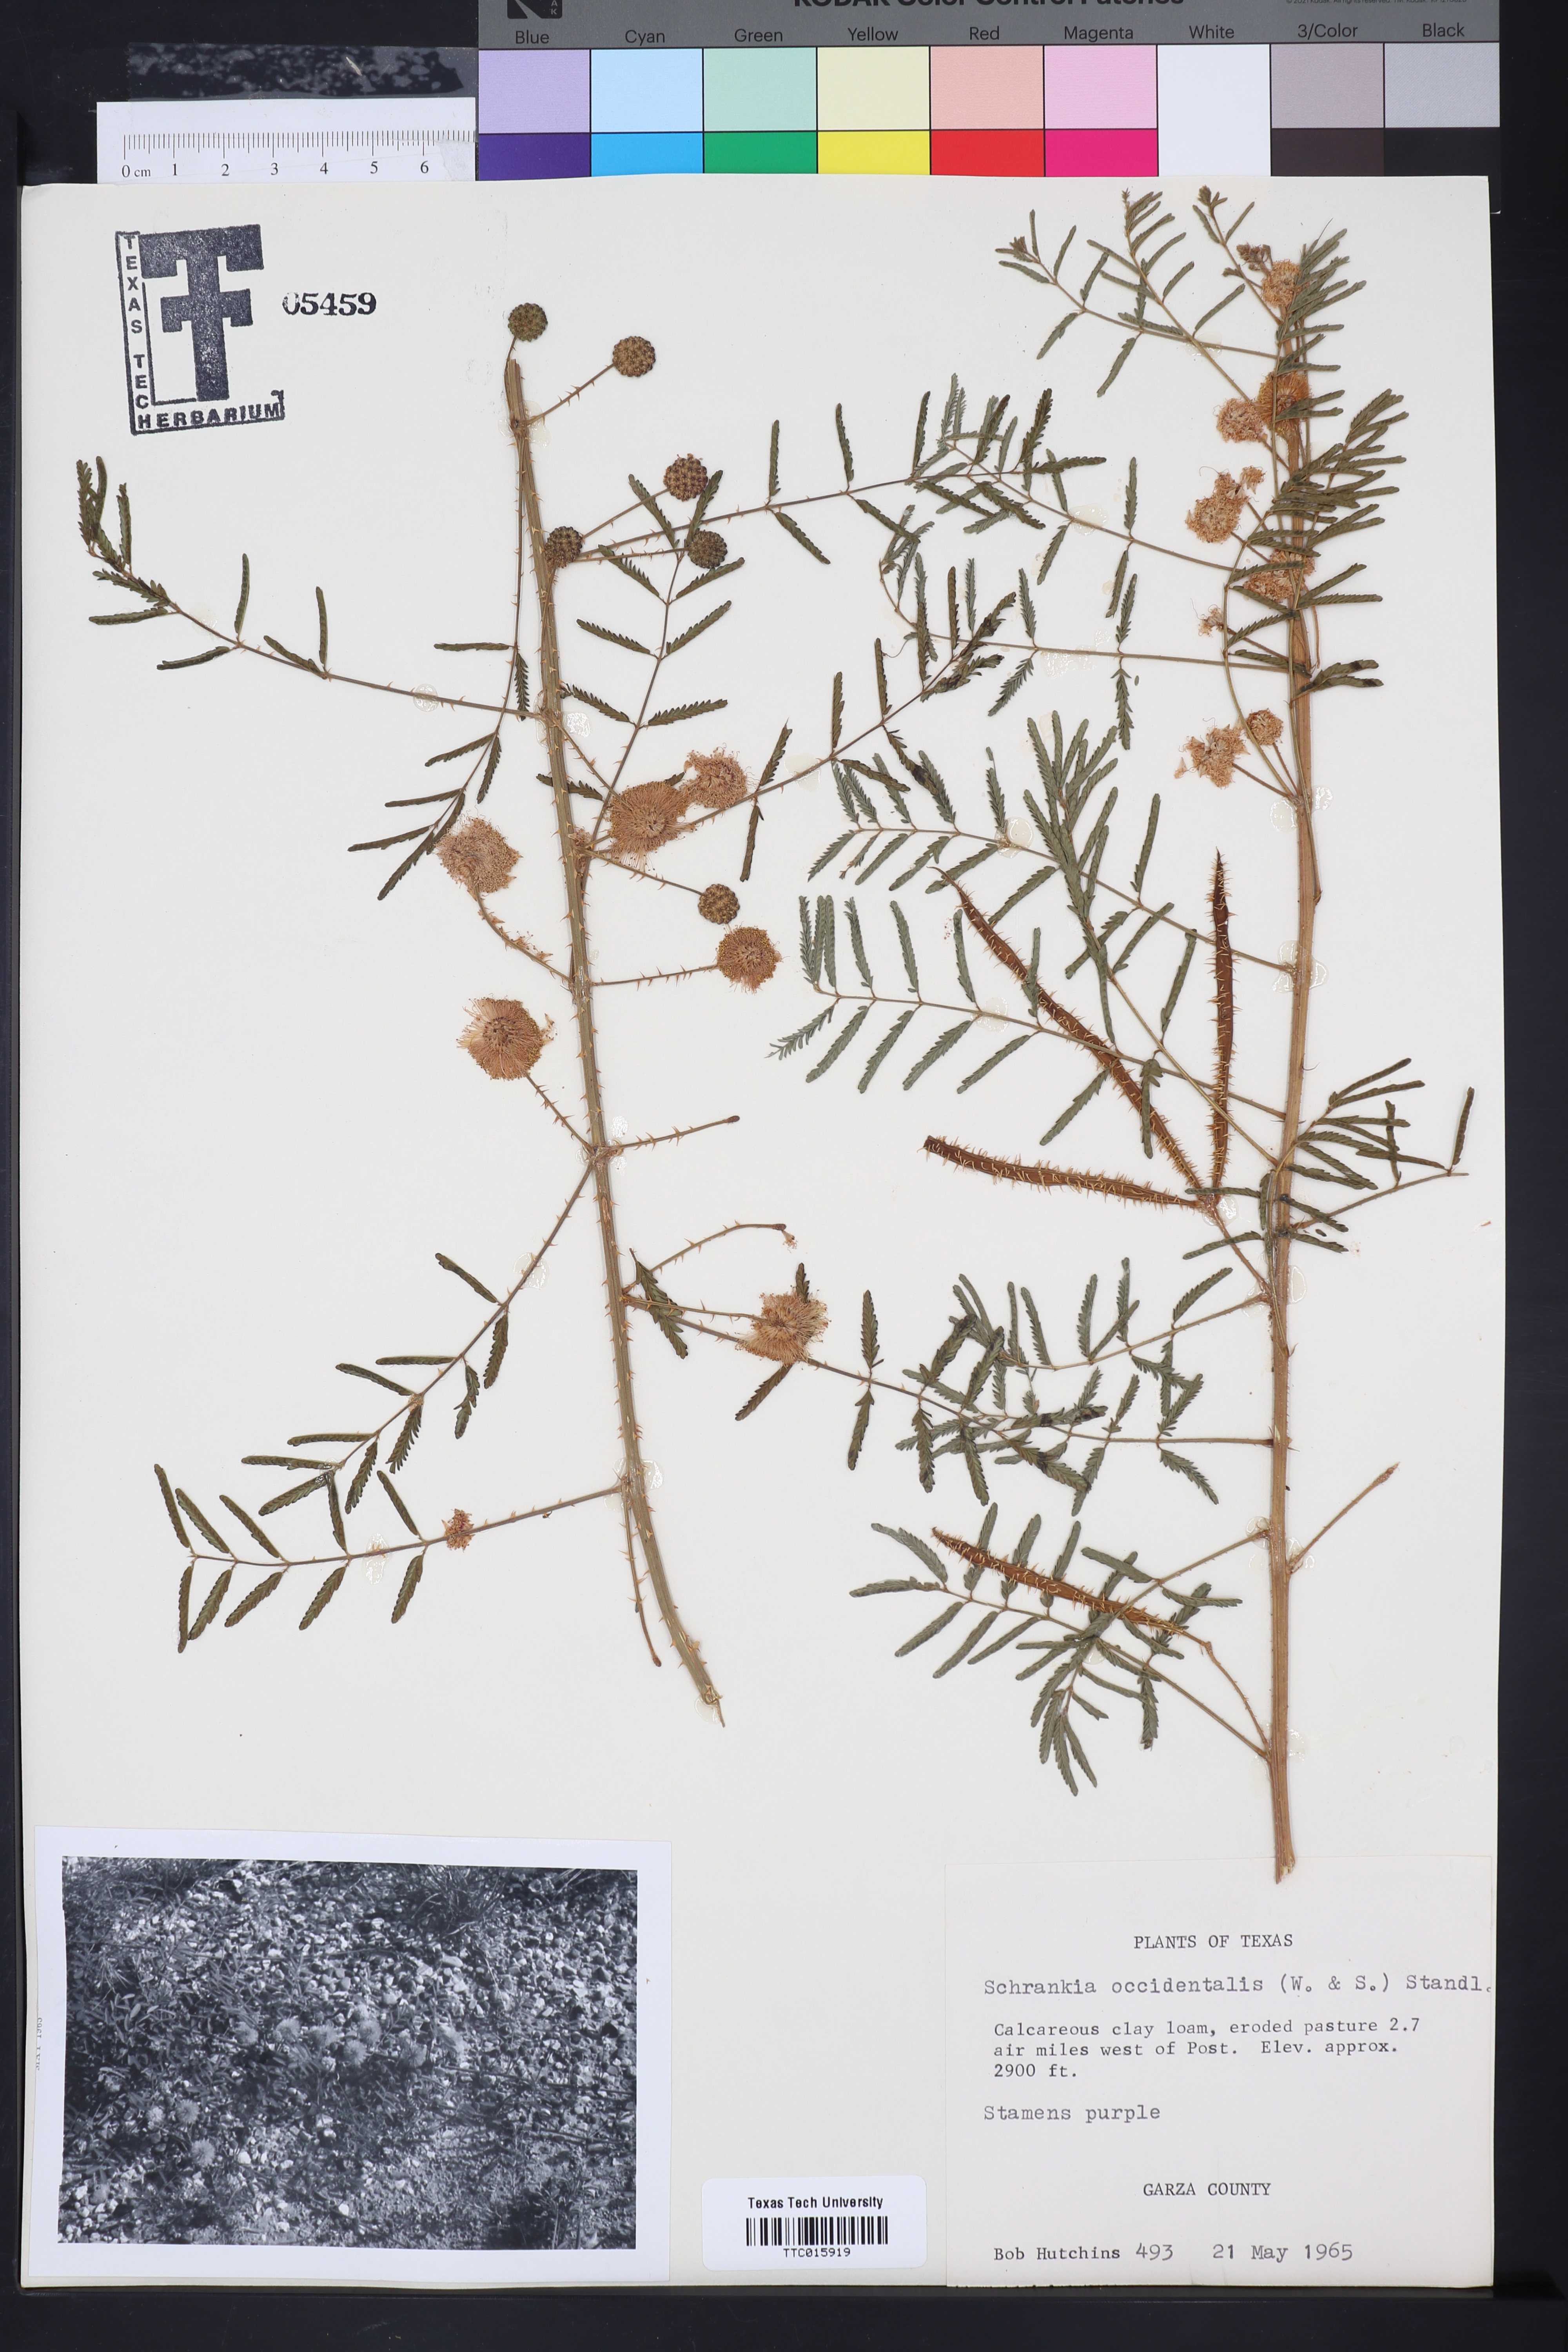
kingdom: Plantae
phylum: Tracheophyta
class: Magnoliopsida
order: Fabales
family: Fabaceae
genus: Mimosa
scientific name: Mimosa quadrivalvis
